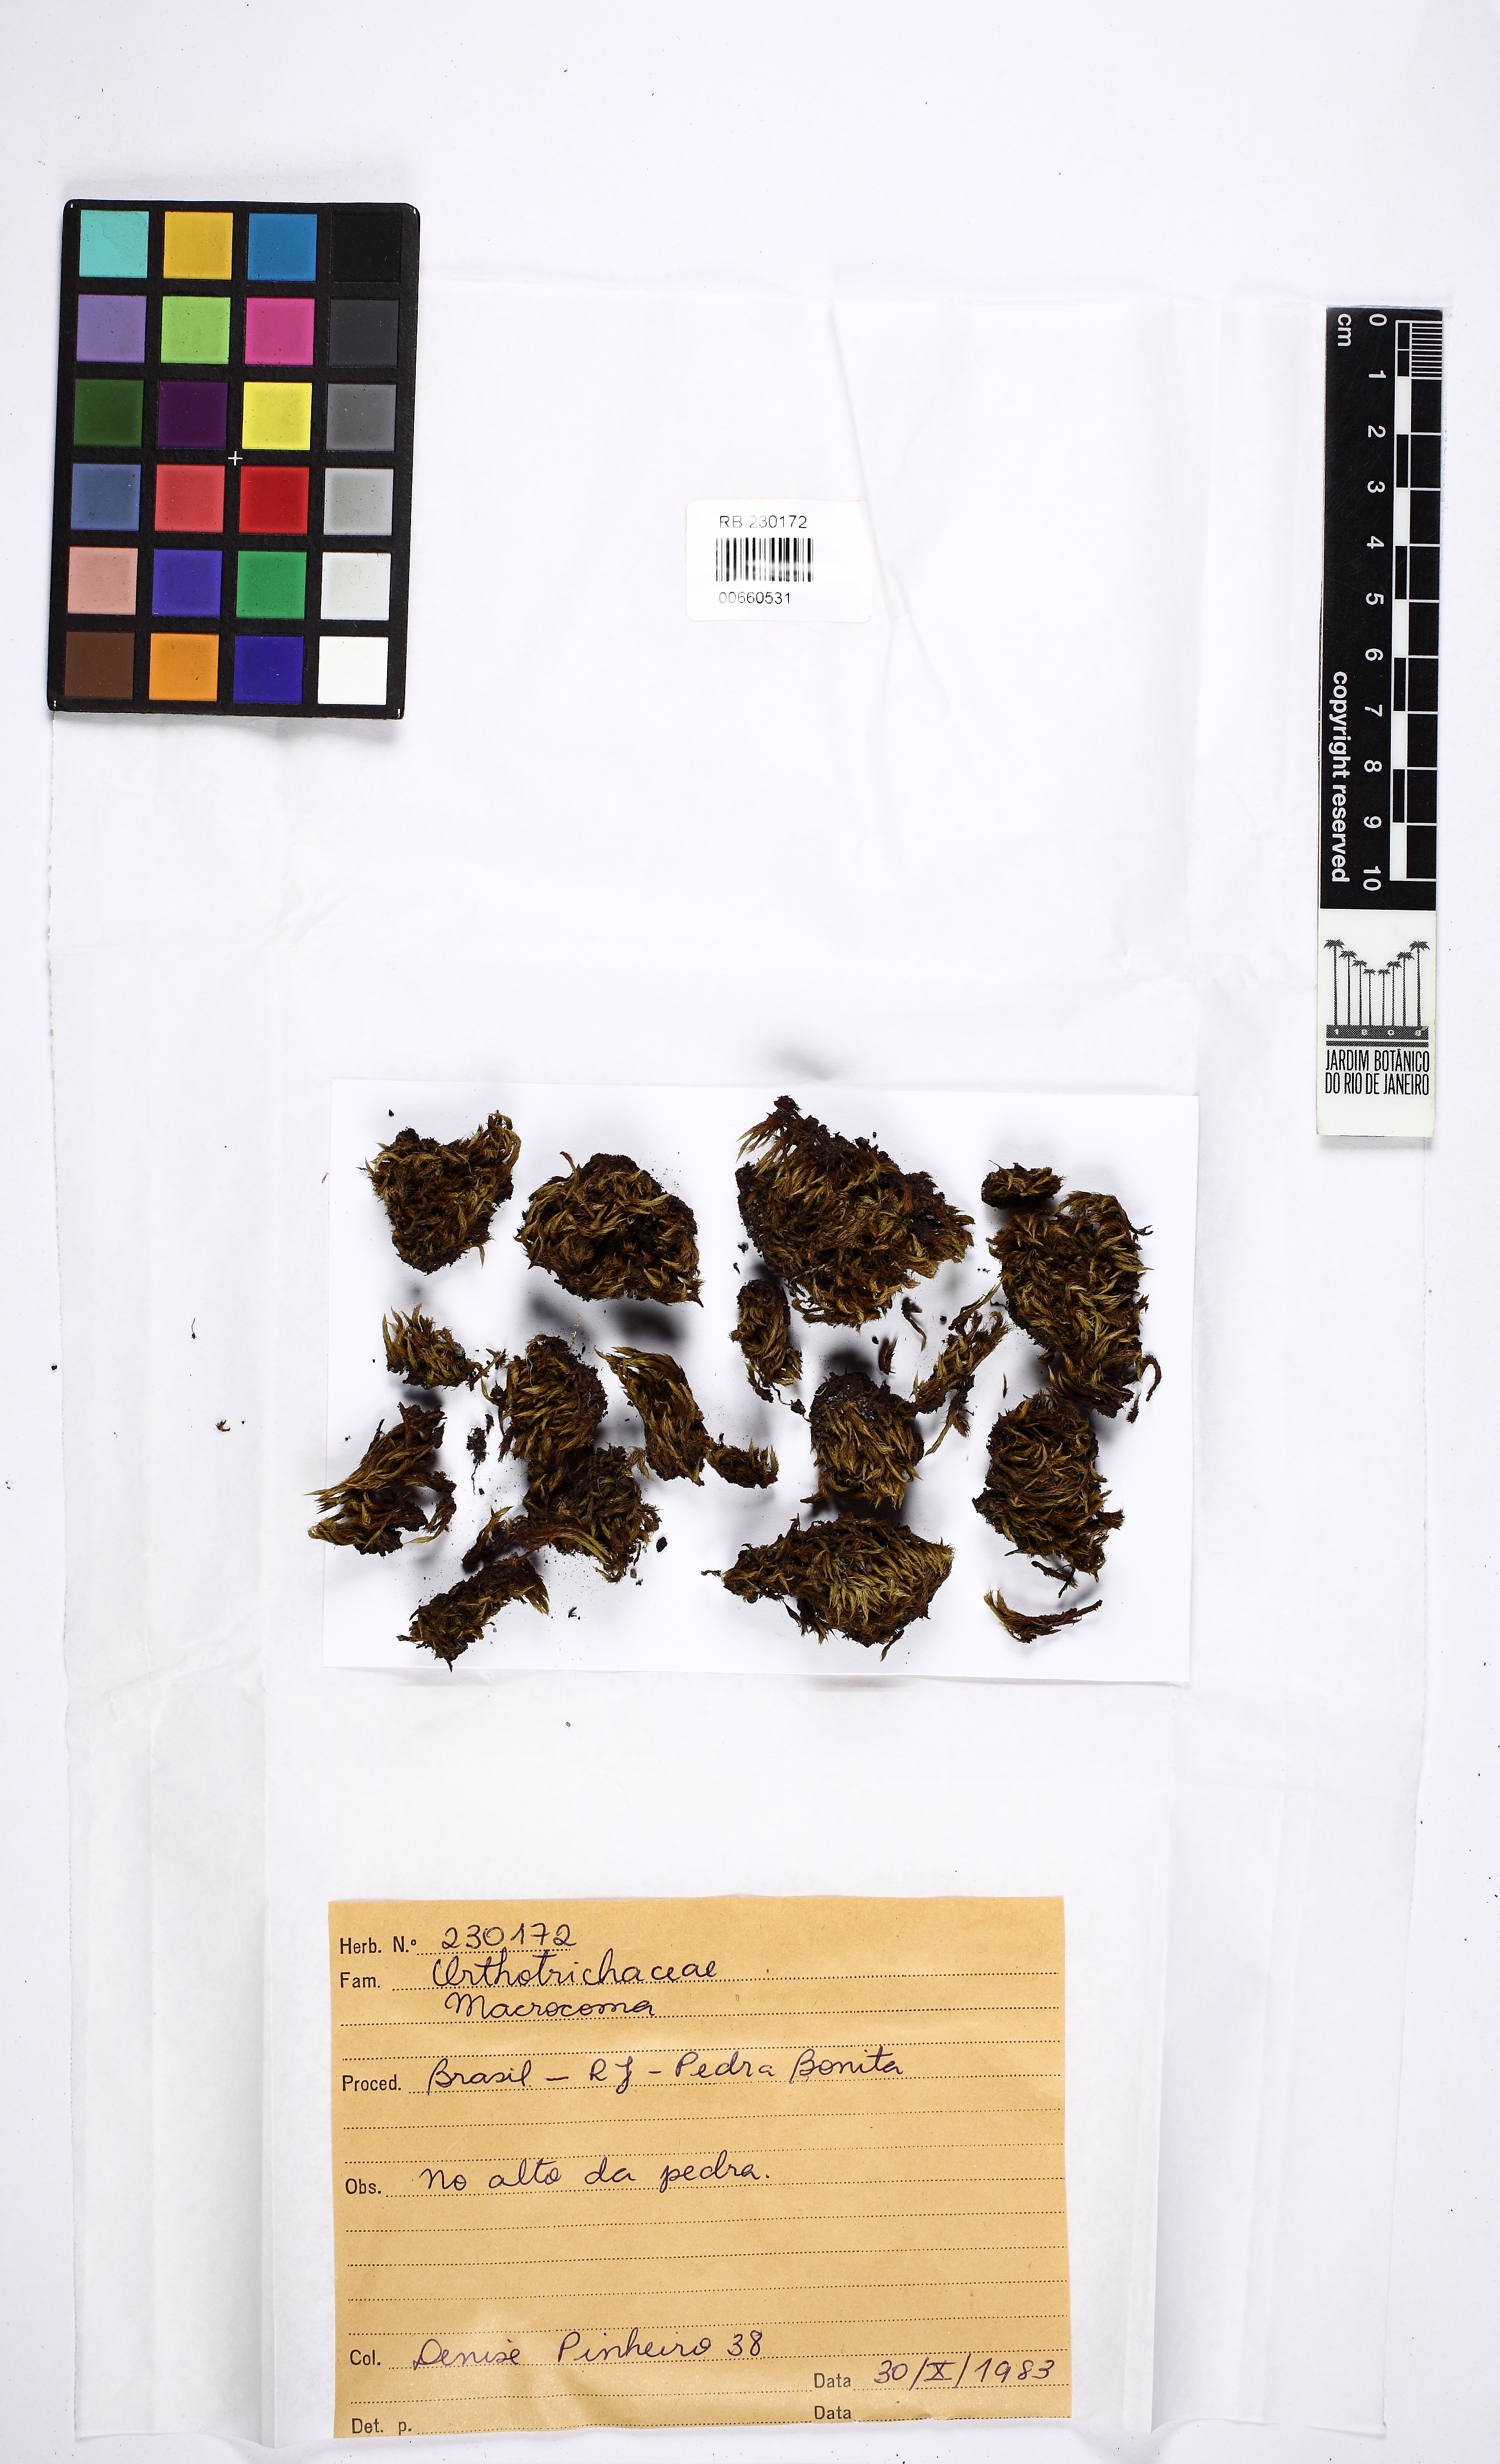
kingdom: Plantae
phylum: Bryophyta
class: Bryopsida
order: Orthotrichales
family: Orthotrichaceae
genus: Macrocoma
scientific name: Macrocoma
